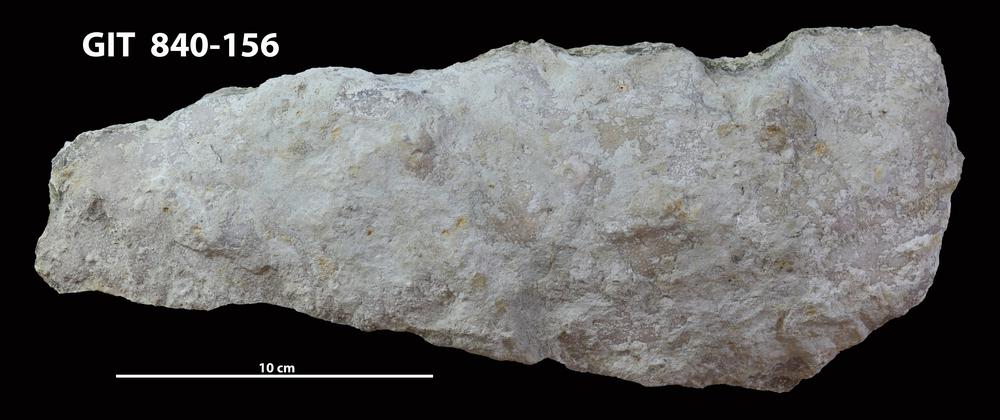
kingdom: Animalia
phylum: Cnidaria
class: Anthozoa
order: Heliolitina
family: Stelliporellidae
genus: Stelliporella
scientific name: Stelliporella
